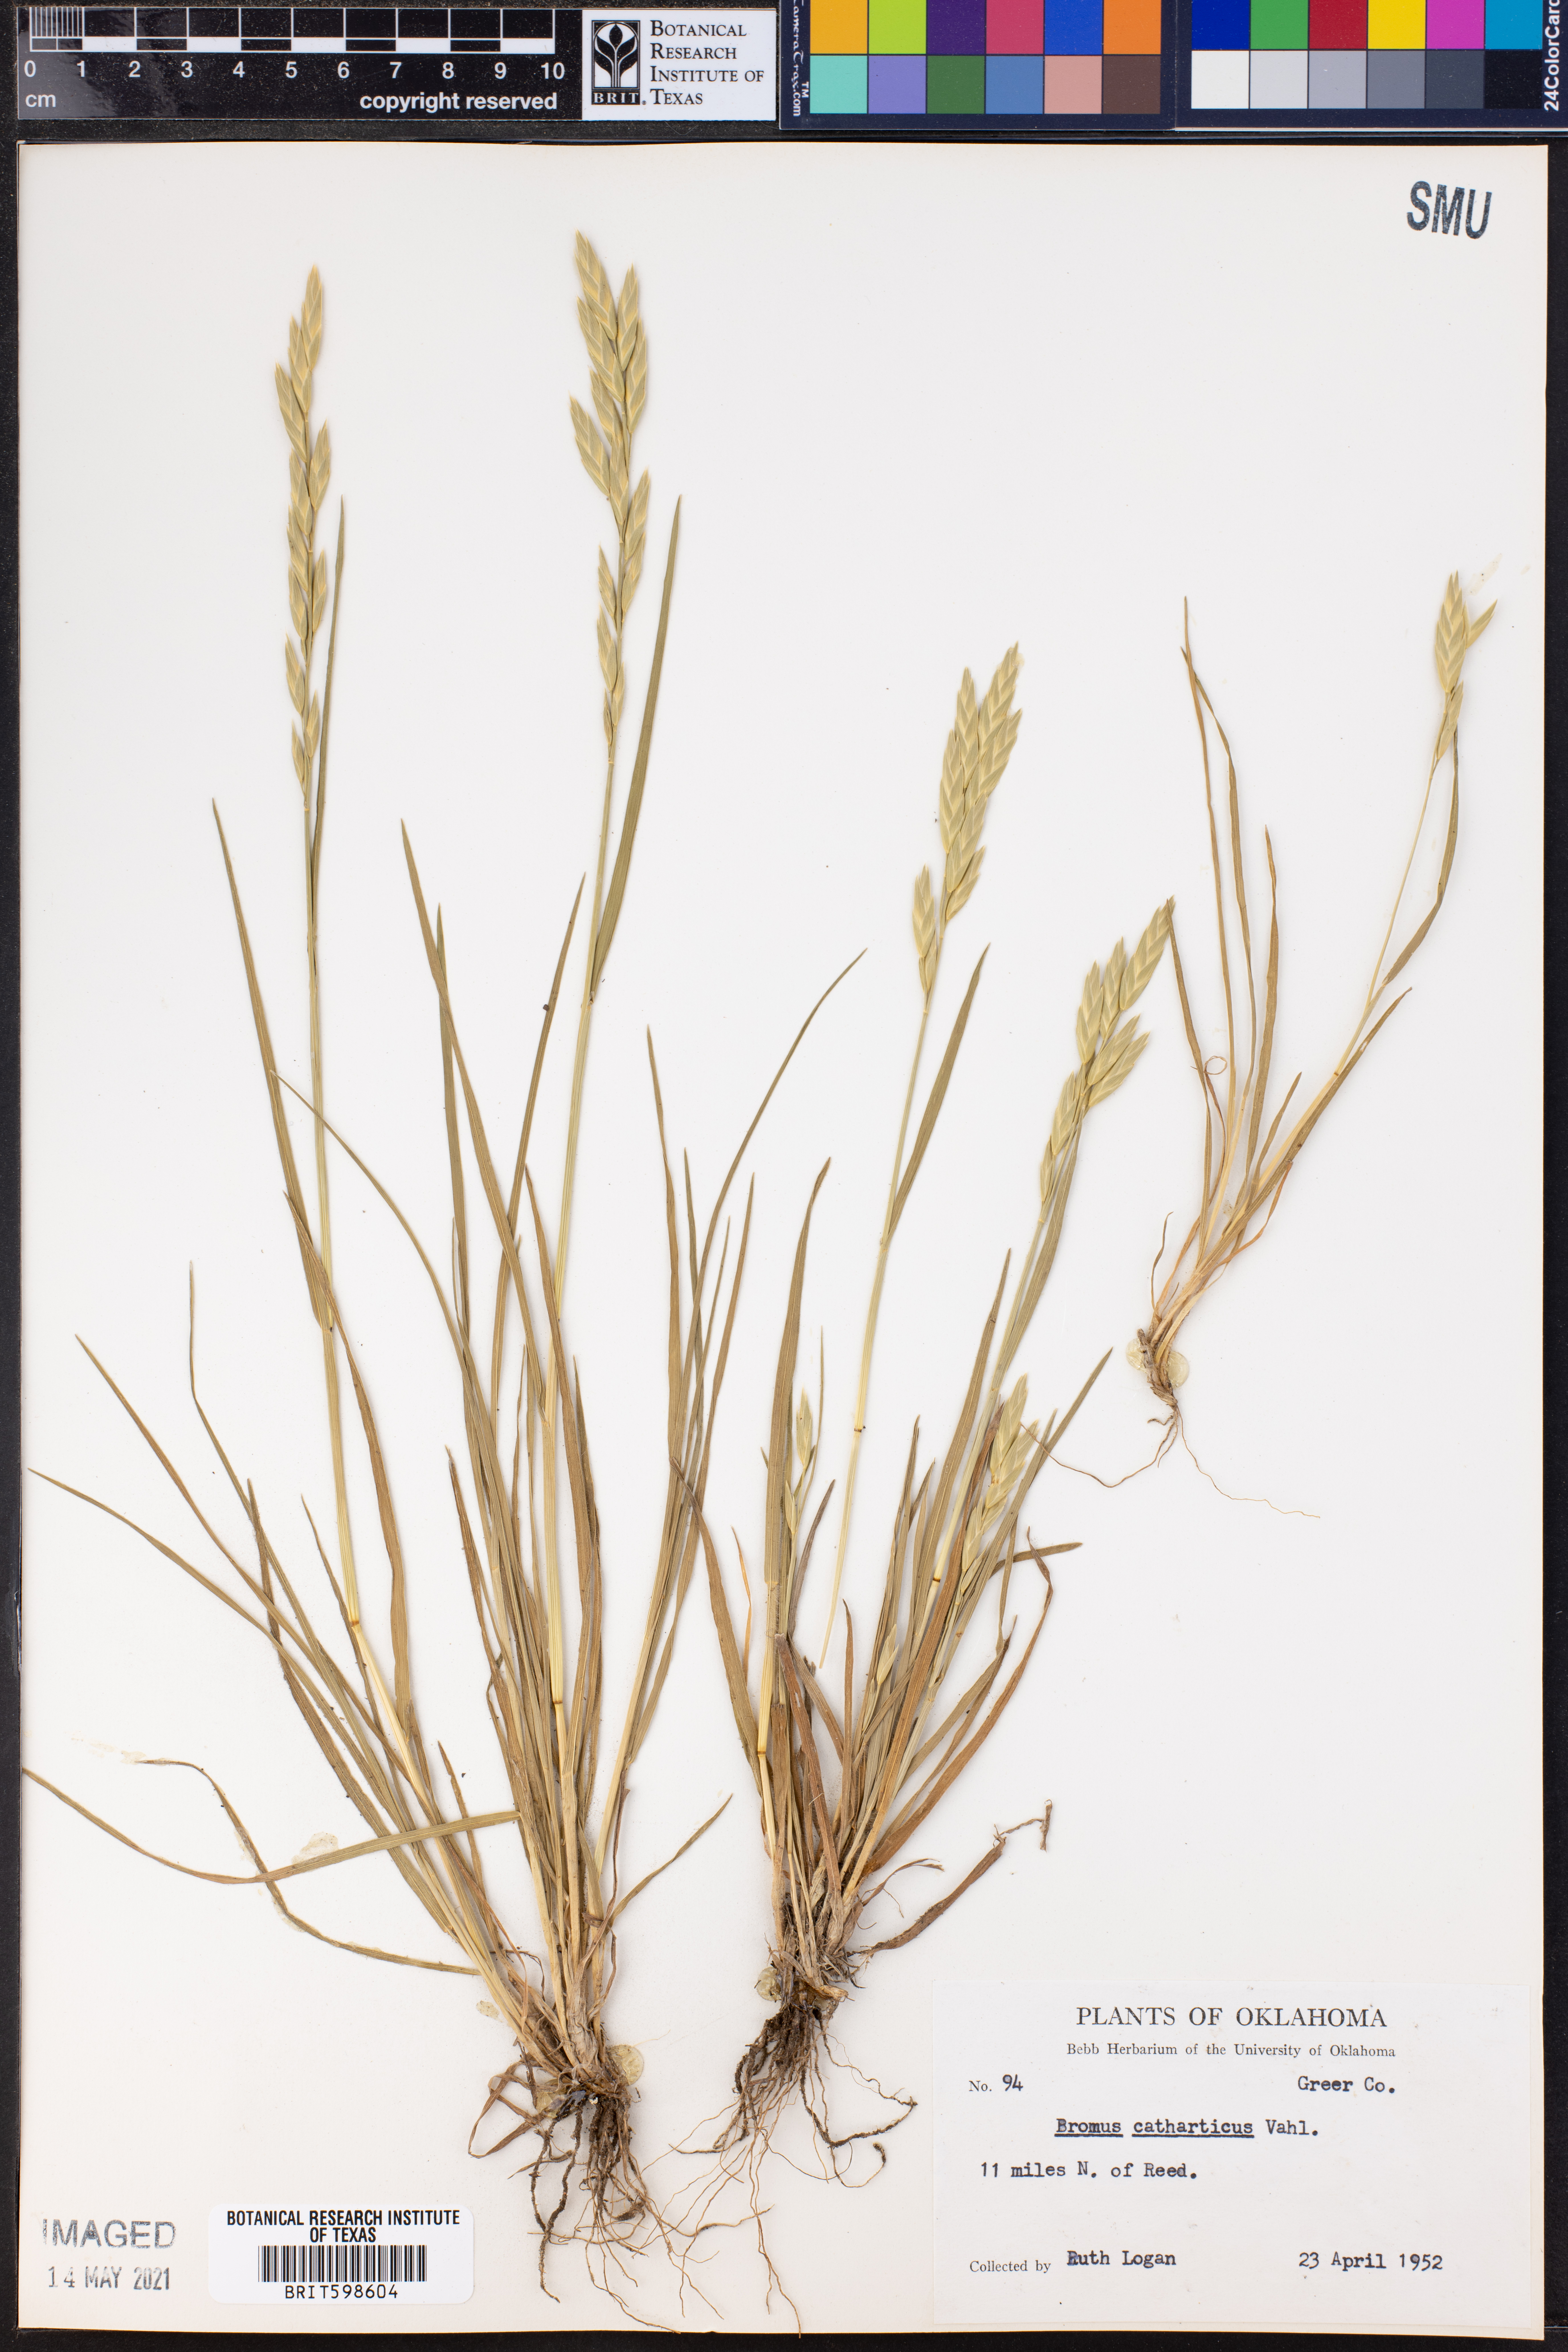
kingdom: Plantae
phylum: Tracheophyta
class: Liliopsida
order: Poales
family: Poaceae
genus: Bromus
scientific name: Bromus catharticus
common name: Rescuegrass
